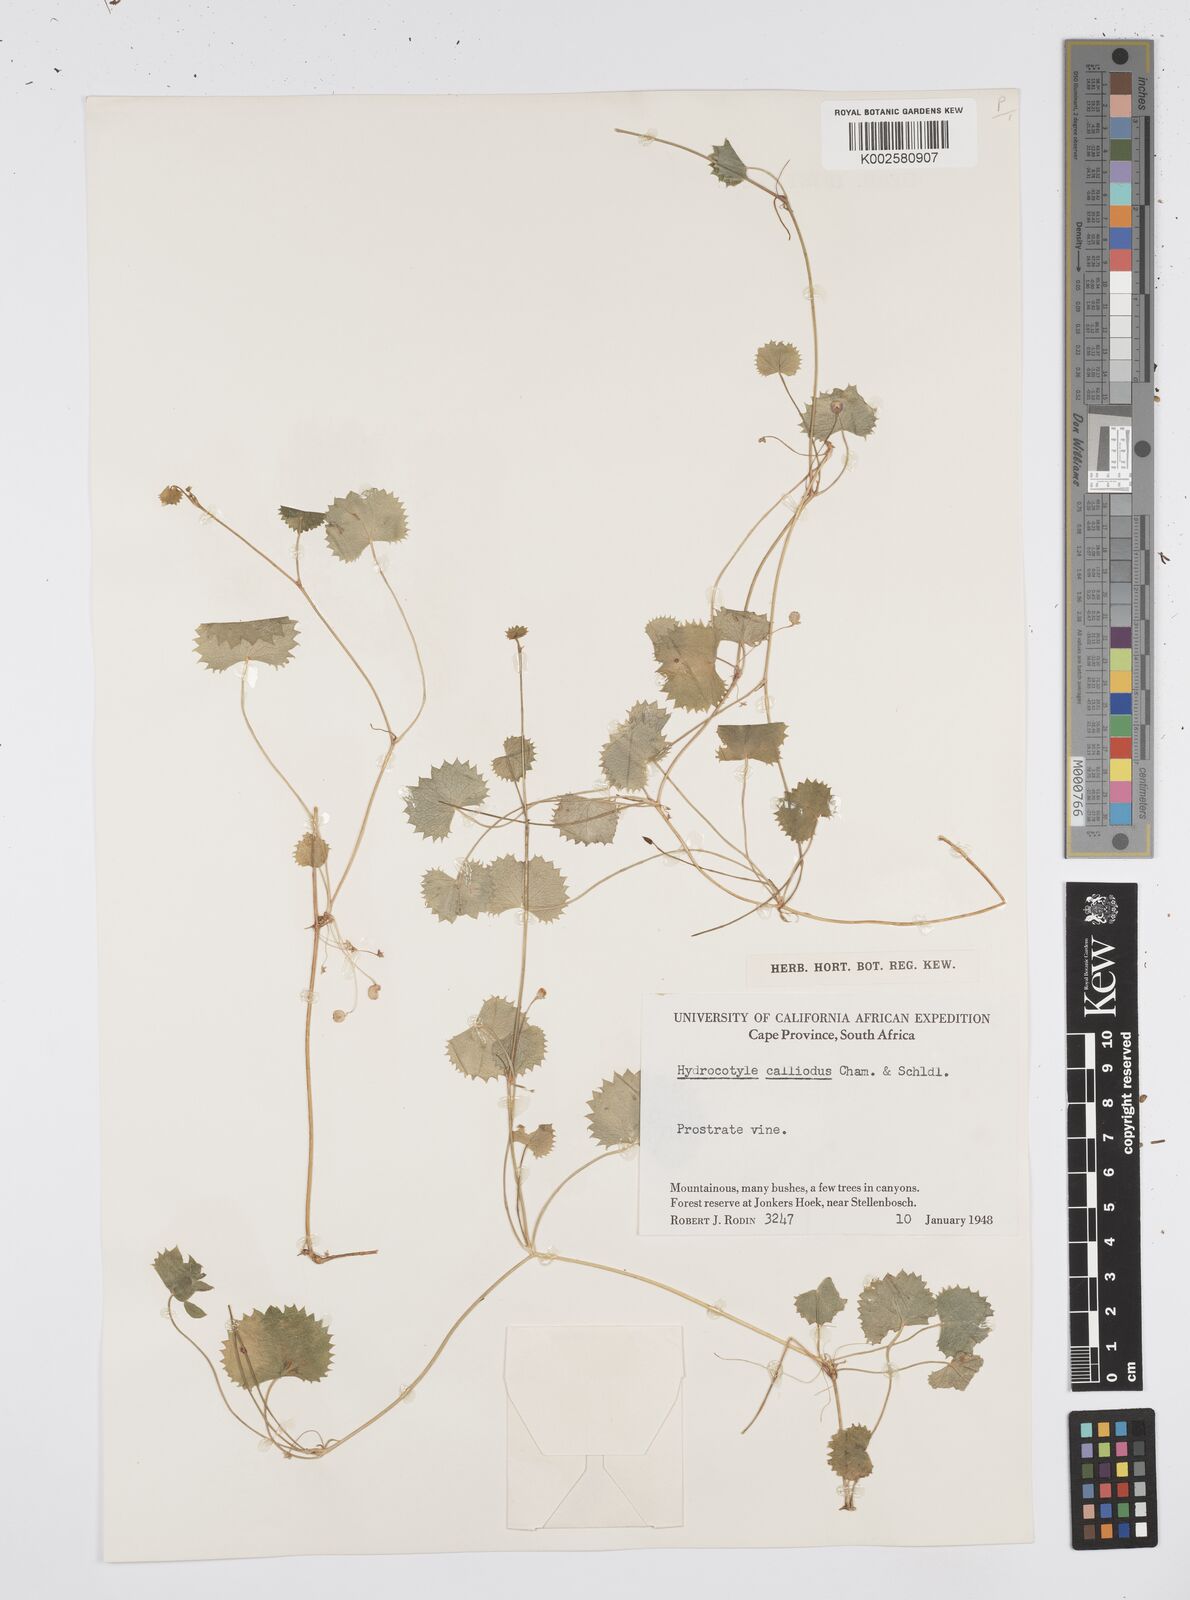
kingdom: Plantae
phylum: Tracheophyta
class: Magnoliopsida
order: Apiales
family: Apiaceae
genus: Centella
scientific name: Centella
